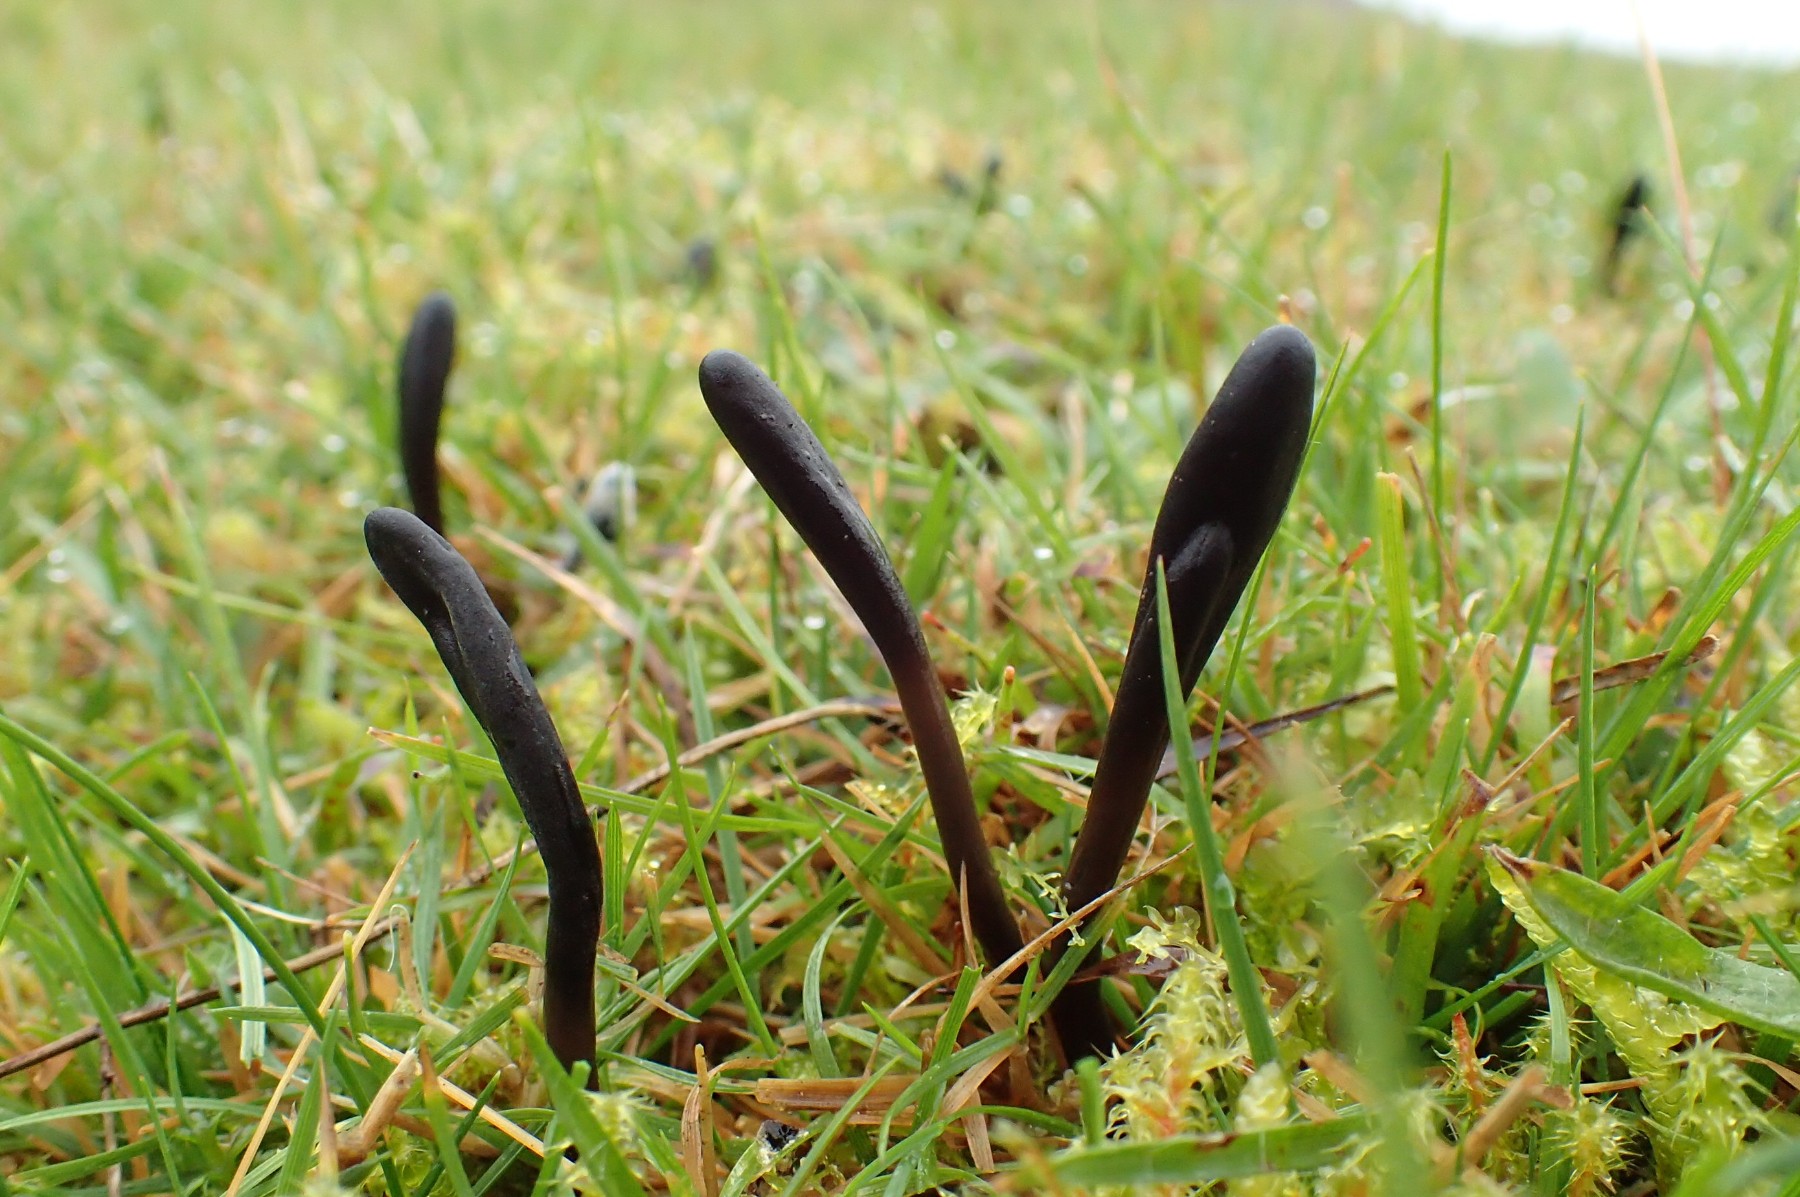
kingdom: Fungi
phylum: Ascomycota
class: Geoglossomycetes
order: Geoglossales
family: Geoglossaceae
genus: Glutinoglossum
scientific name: Glutinoglossum glutinosum
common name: slimet jordtunge
